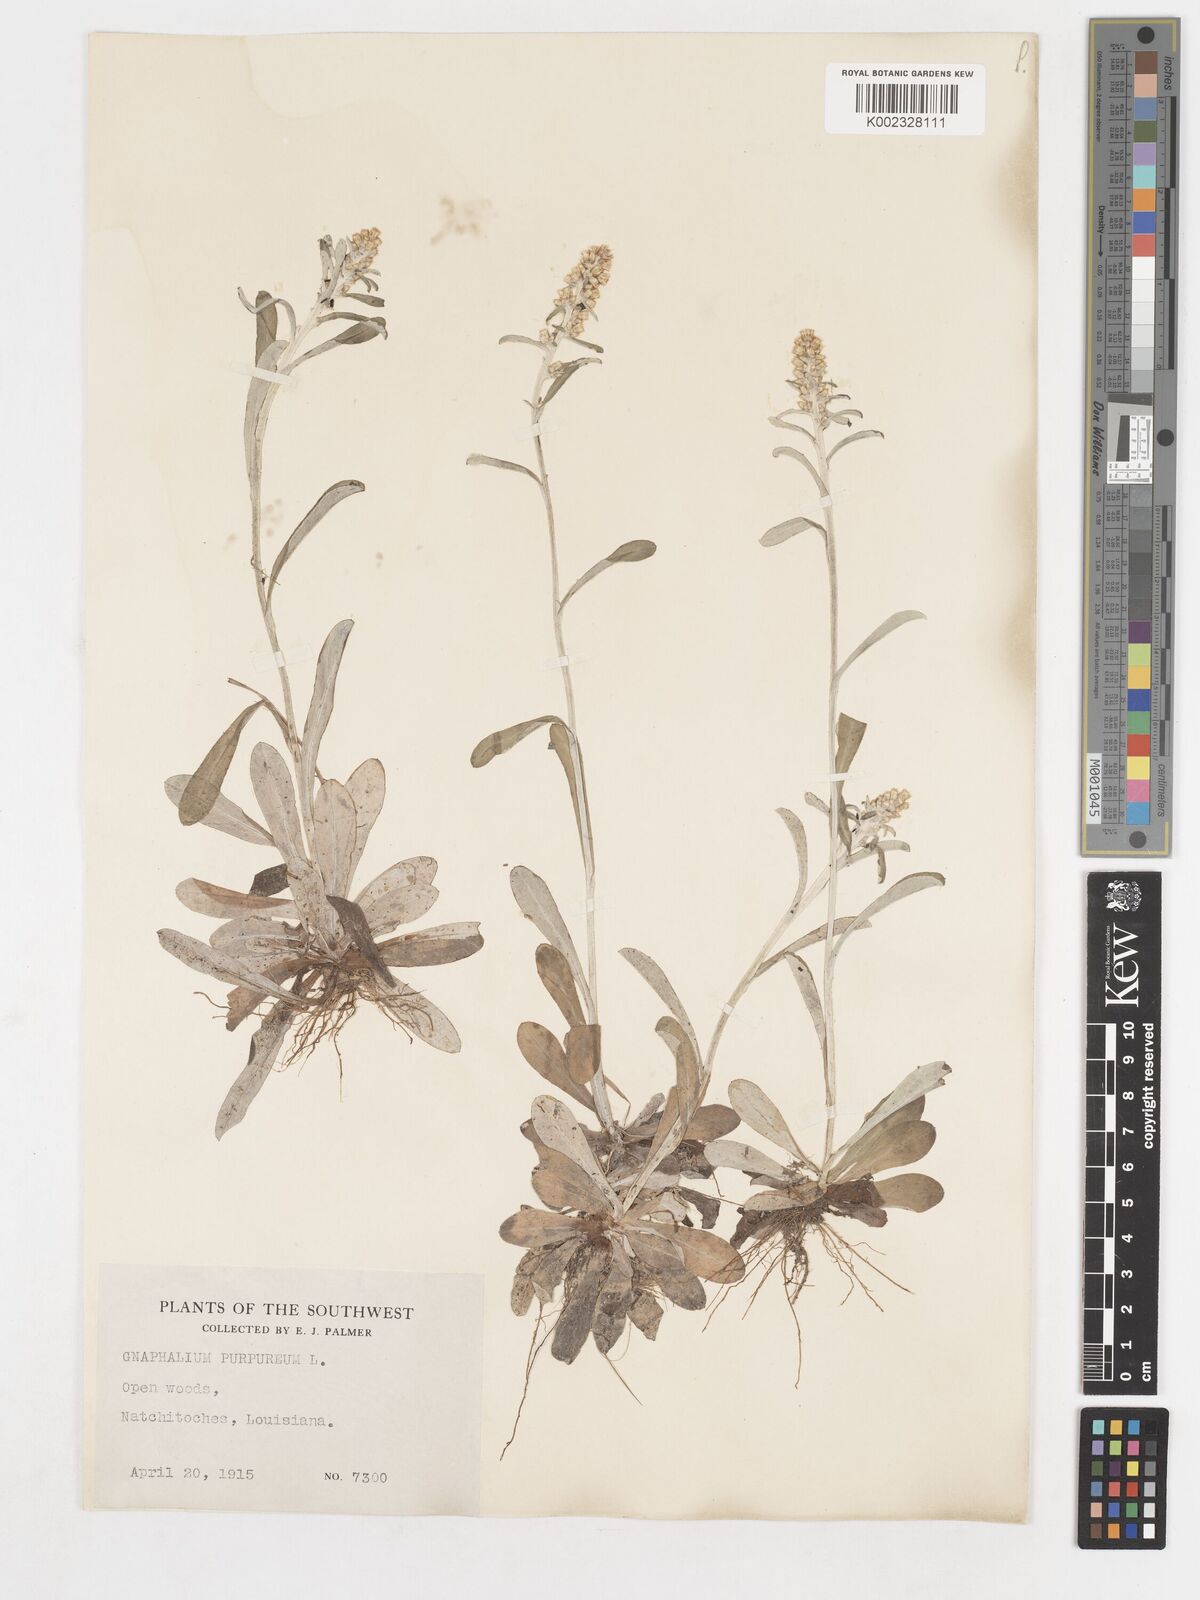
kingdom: Plantae
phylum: Tracheophyta
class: Magnoliopsida
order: Asterales
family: Asteraceae
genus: Gamochaeta
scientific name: Gamochaeta purpurea
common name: Purple cudweed
